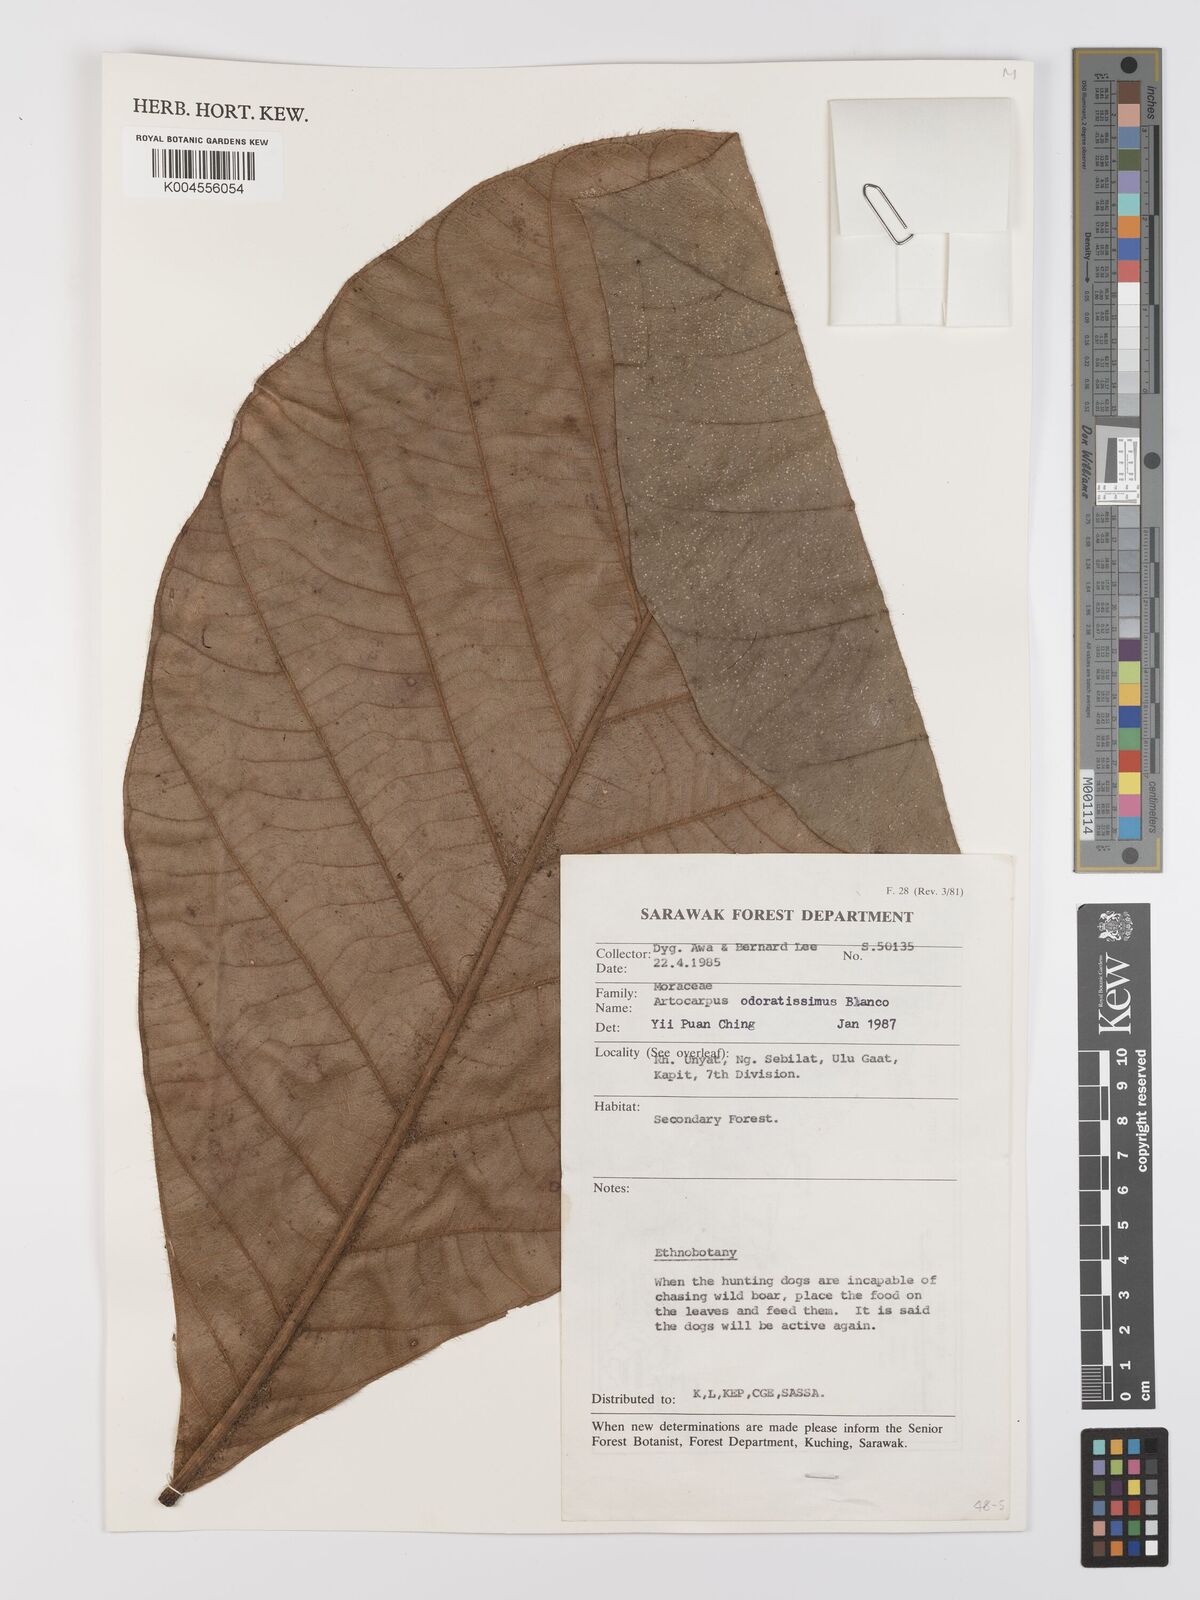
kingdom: Plantae
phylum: Tracheophyta
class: Magnoliopsida
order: Rosales
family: Moraceae
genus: Artocarpus
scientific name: Artocarpus odoratissimus
